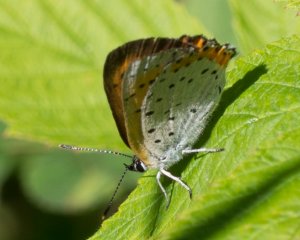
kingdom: Animalia
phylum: Arthropoda
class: Insecta
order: Lepidoptera
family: Sesiidae
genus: Sesia
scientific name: Sesia Lycaena hyllus
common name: Bronze Copper
